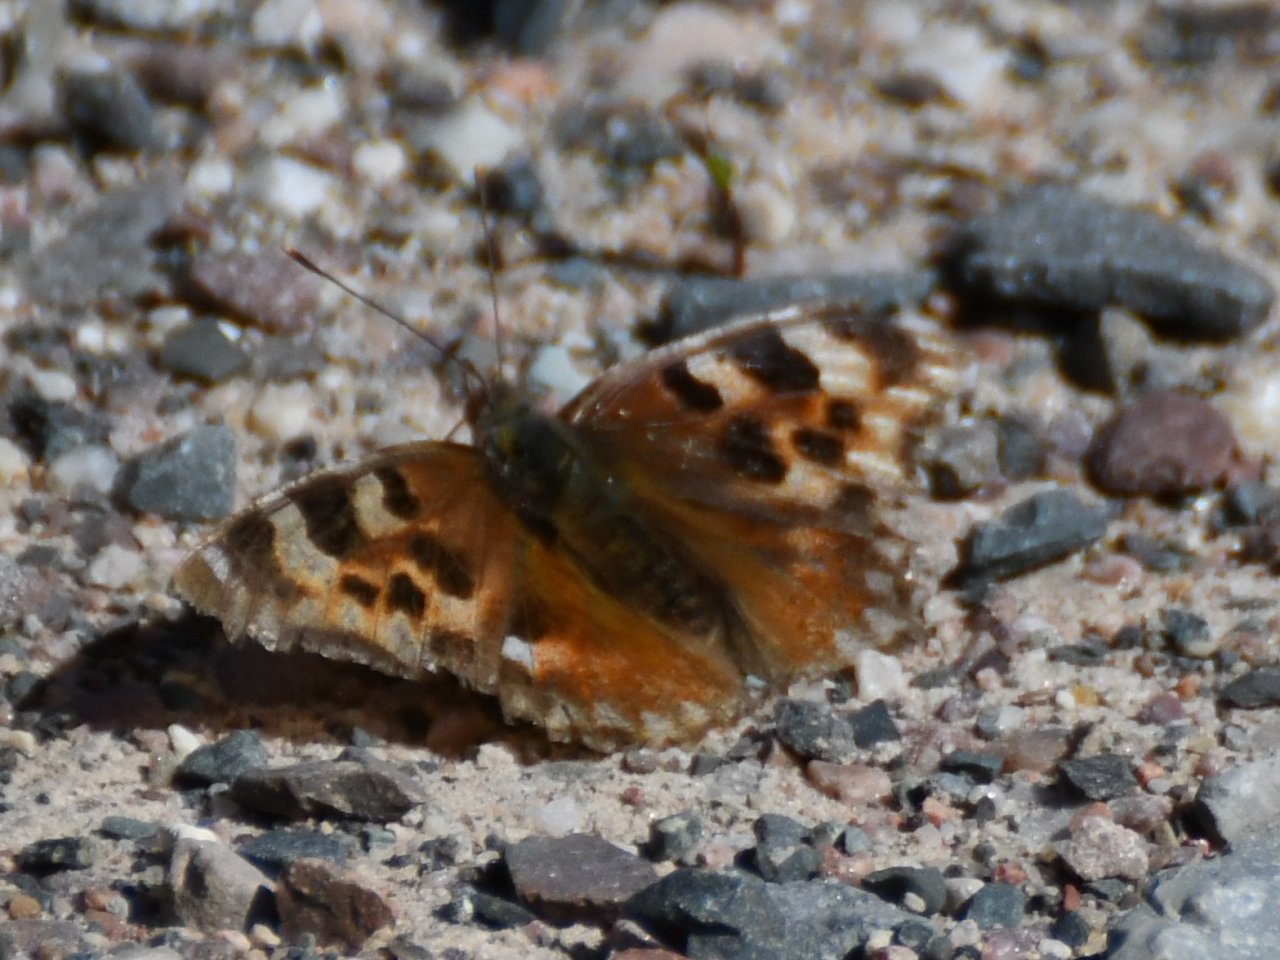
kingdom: Animalia
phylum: Arthropoda
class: Insecta
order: Lepidoptera
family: Nymphalidae
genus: Polygonia
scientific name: Polygonia vaualbum
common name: Compton Tortoiseshell
